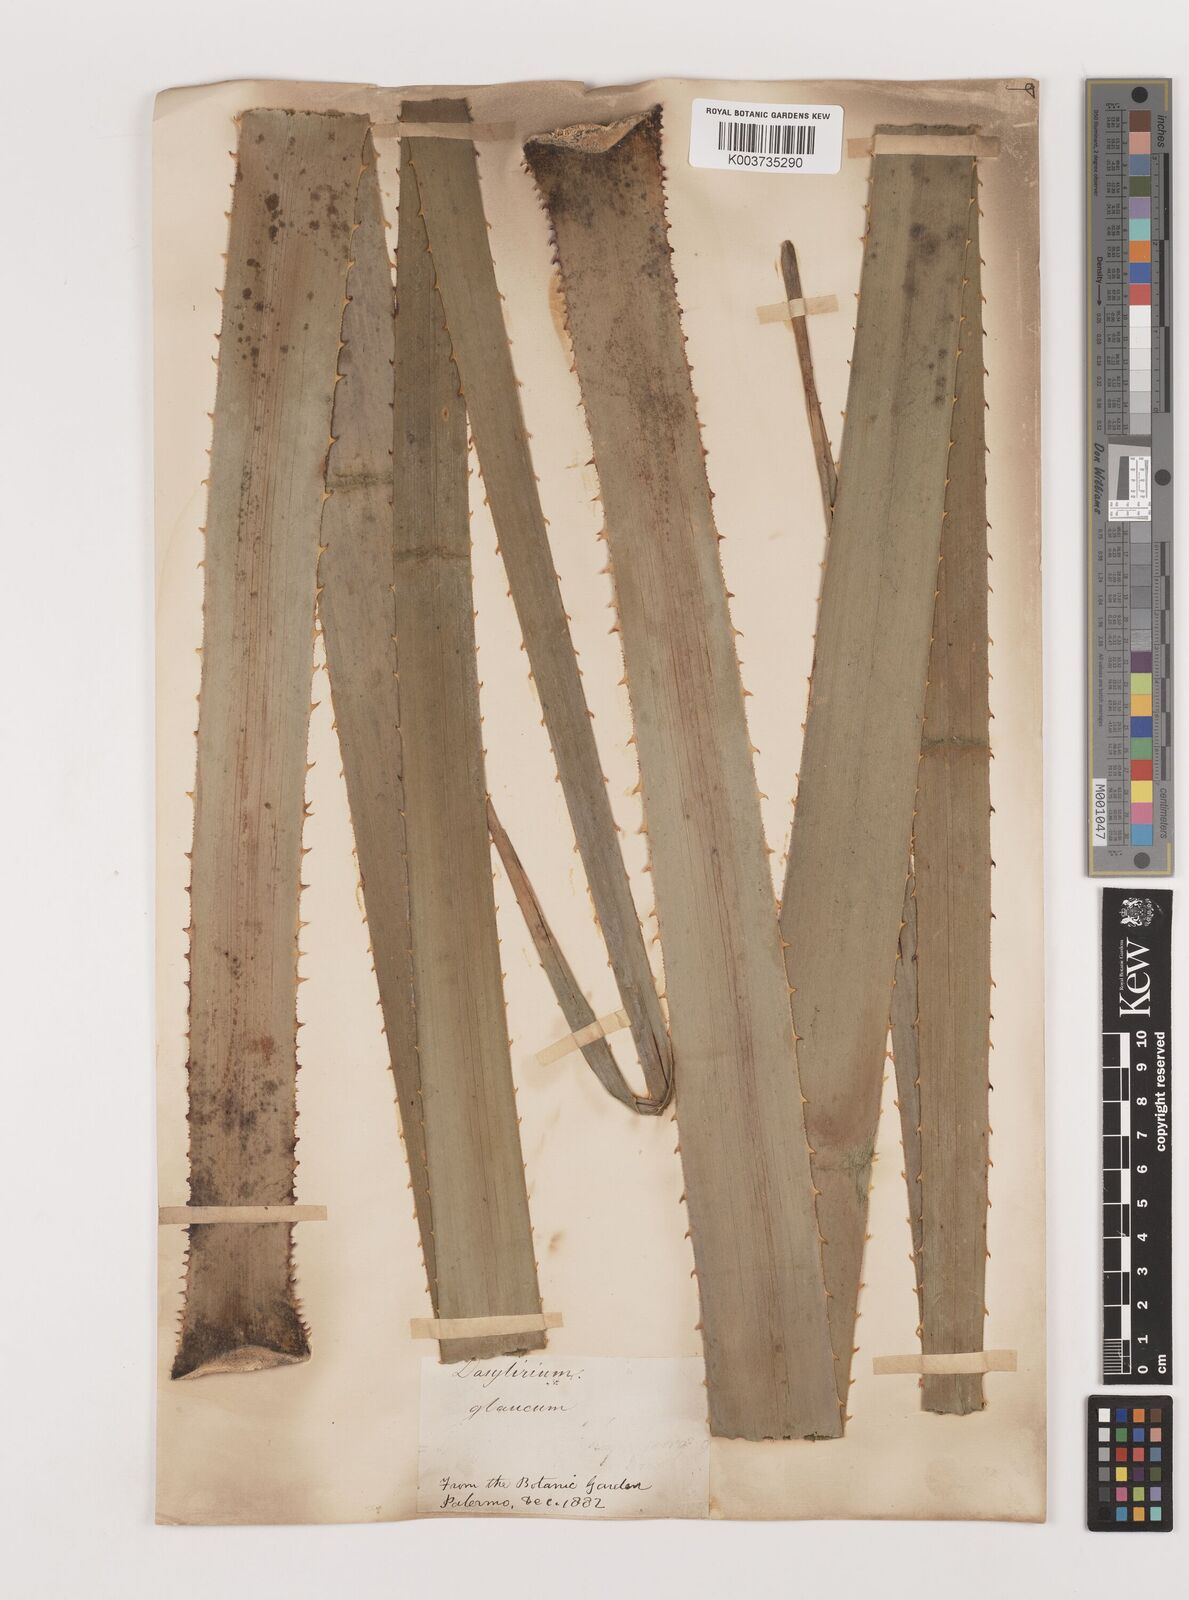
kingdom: Plantae
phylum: Tracheophyta
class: Liliopsida
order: Asparagales
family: Asparagaceae
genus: Dasylirion
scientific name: Dasylirion serratifolium
